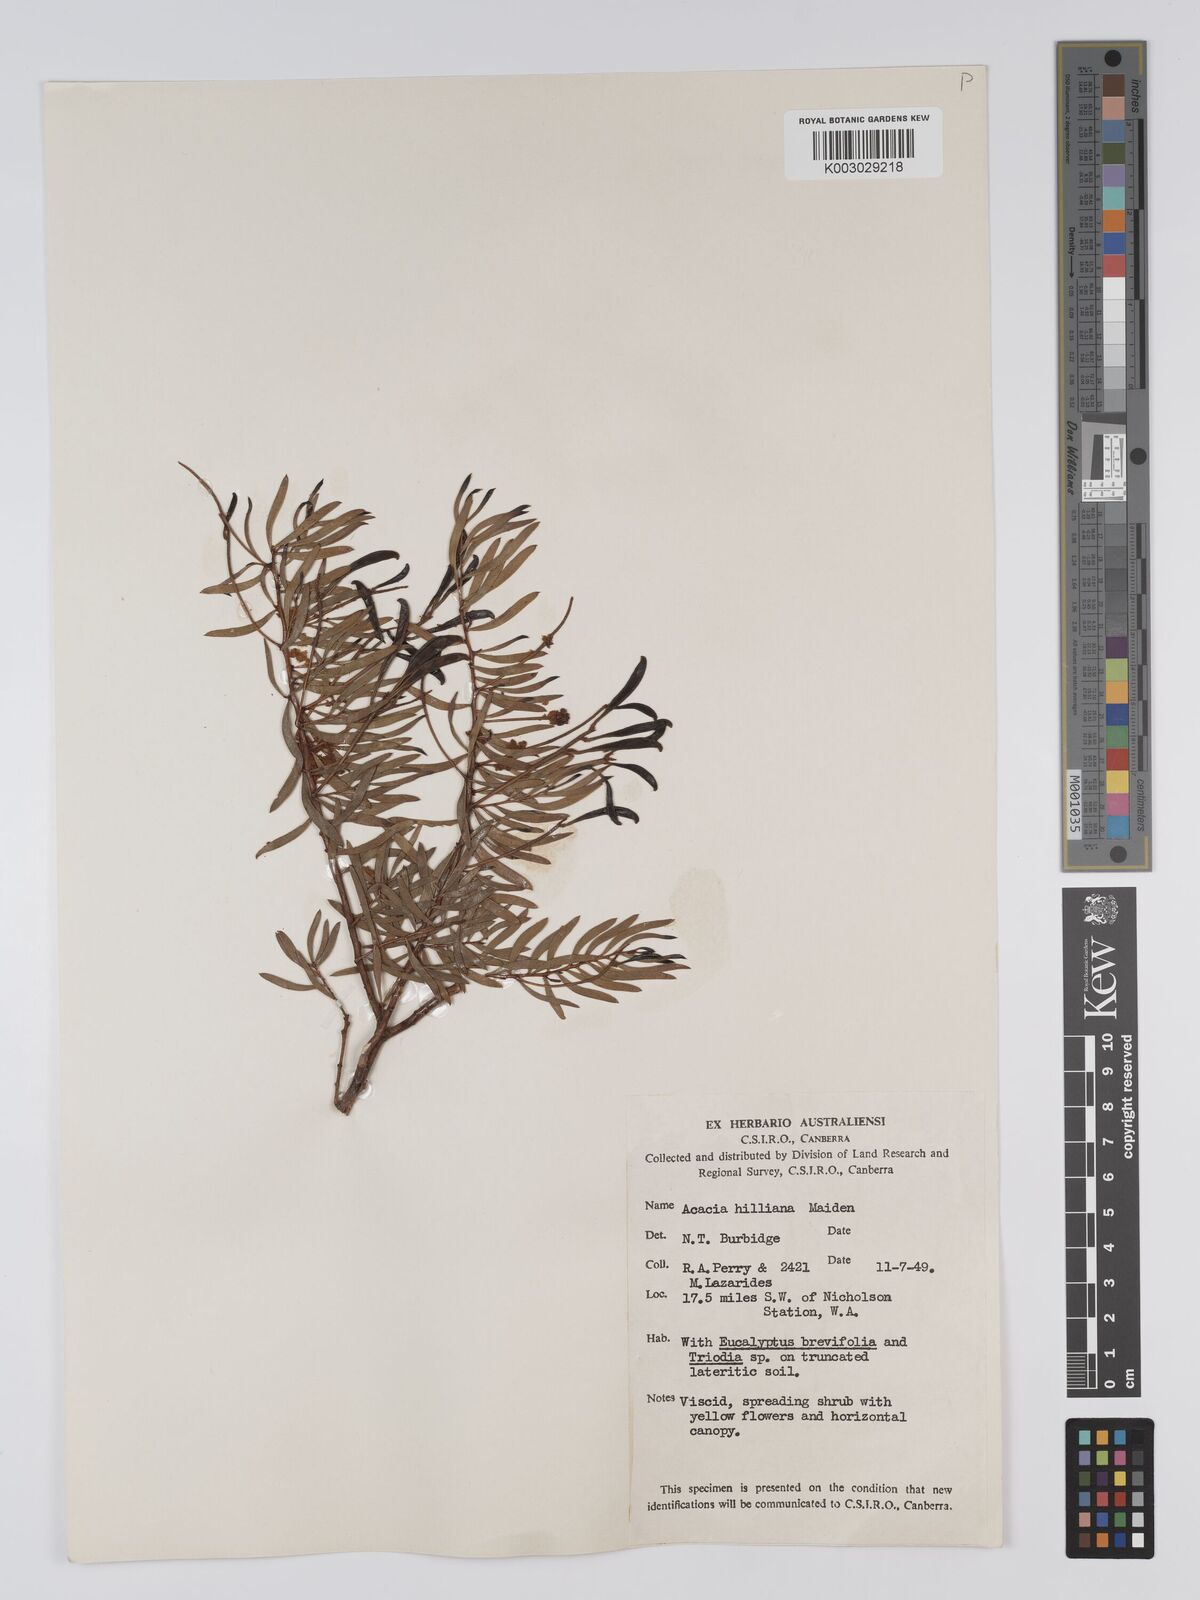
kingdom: Plantae
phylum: Tracheophyta
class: Magnoliopsida
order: Fabales
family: Fabaceae
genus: Acacia
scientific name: Acacia hilliana
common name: Hill's tabletop wattle
